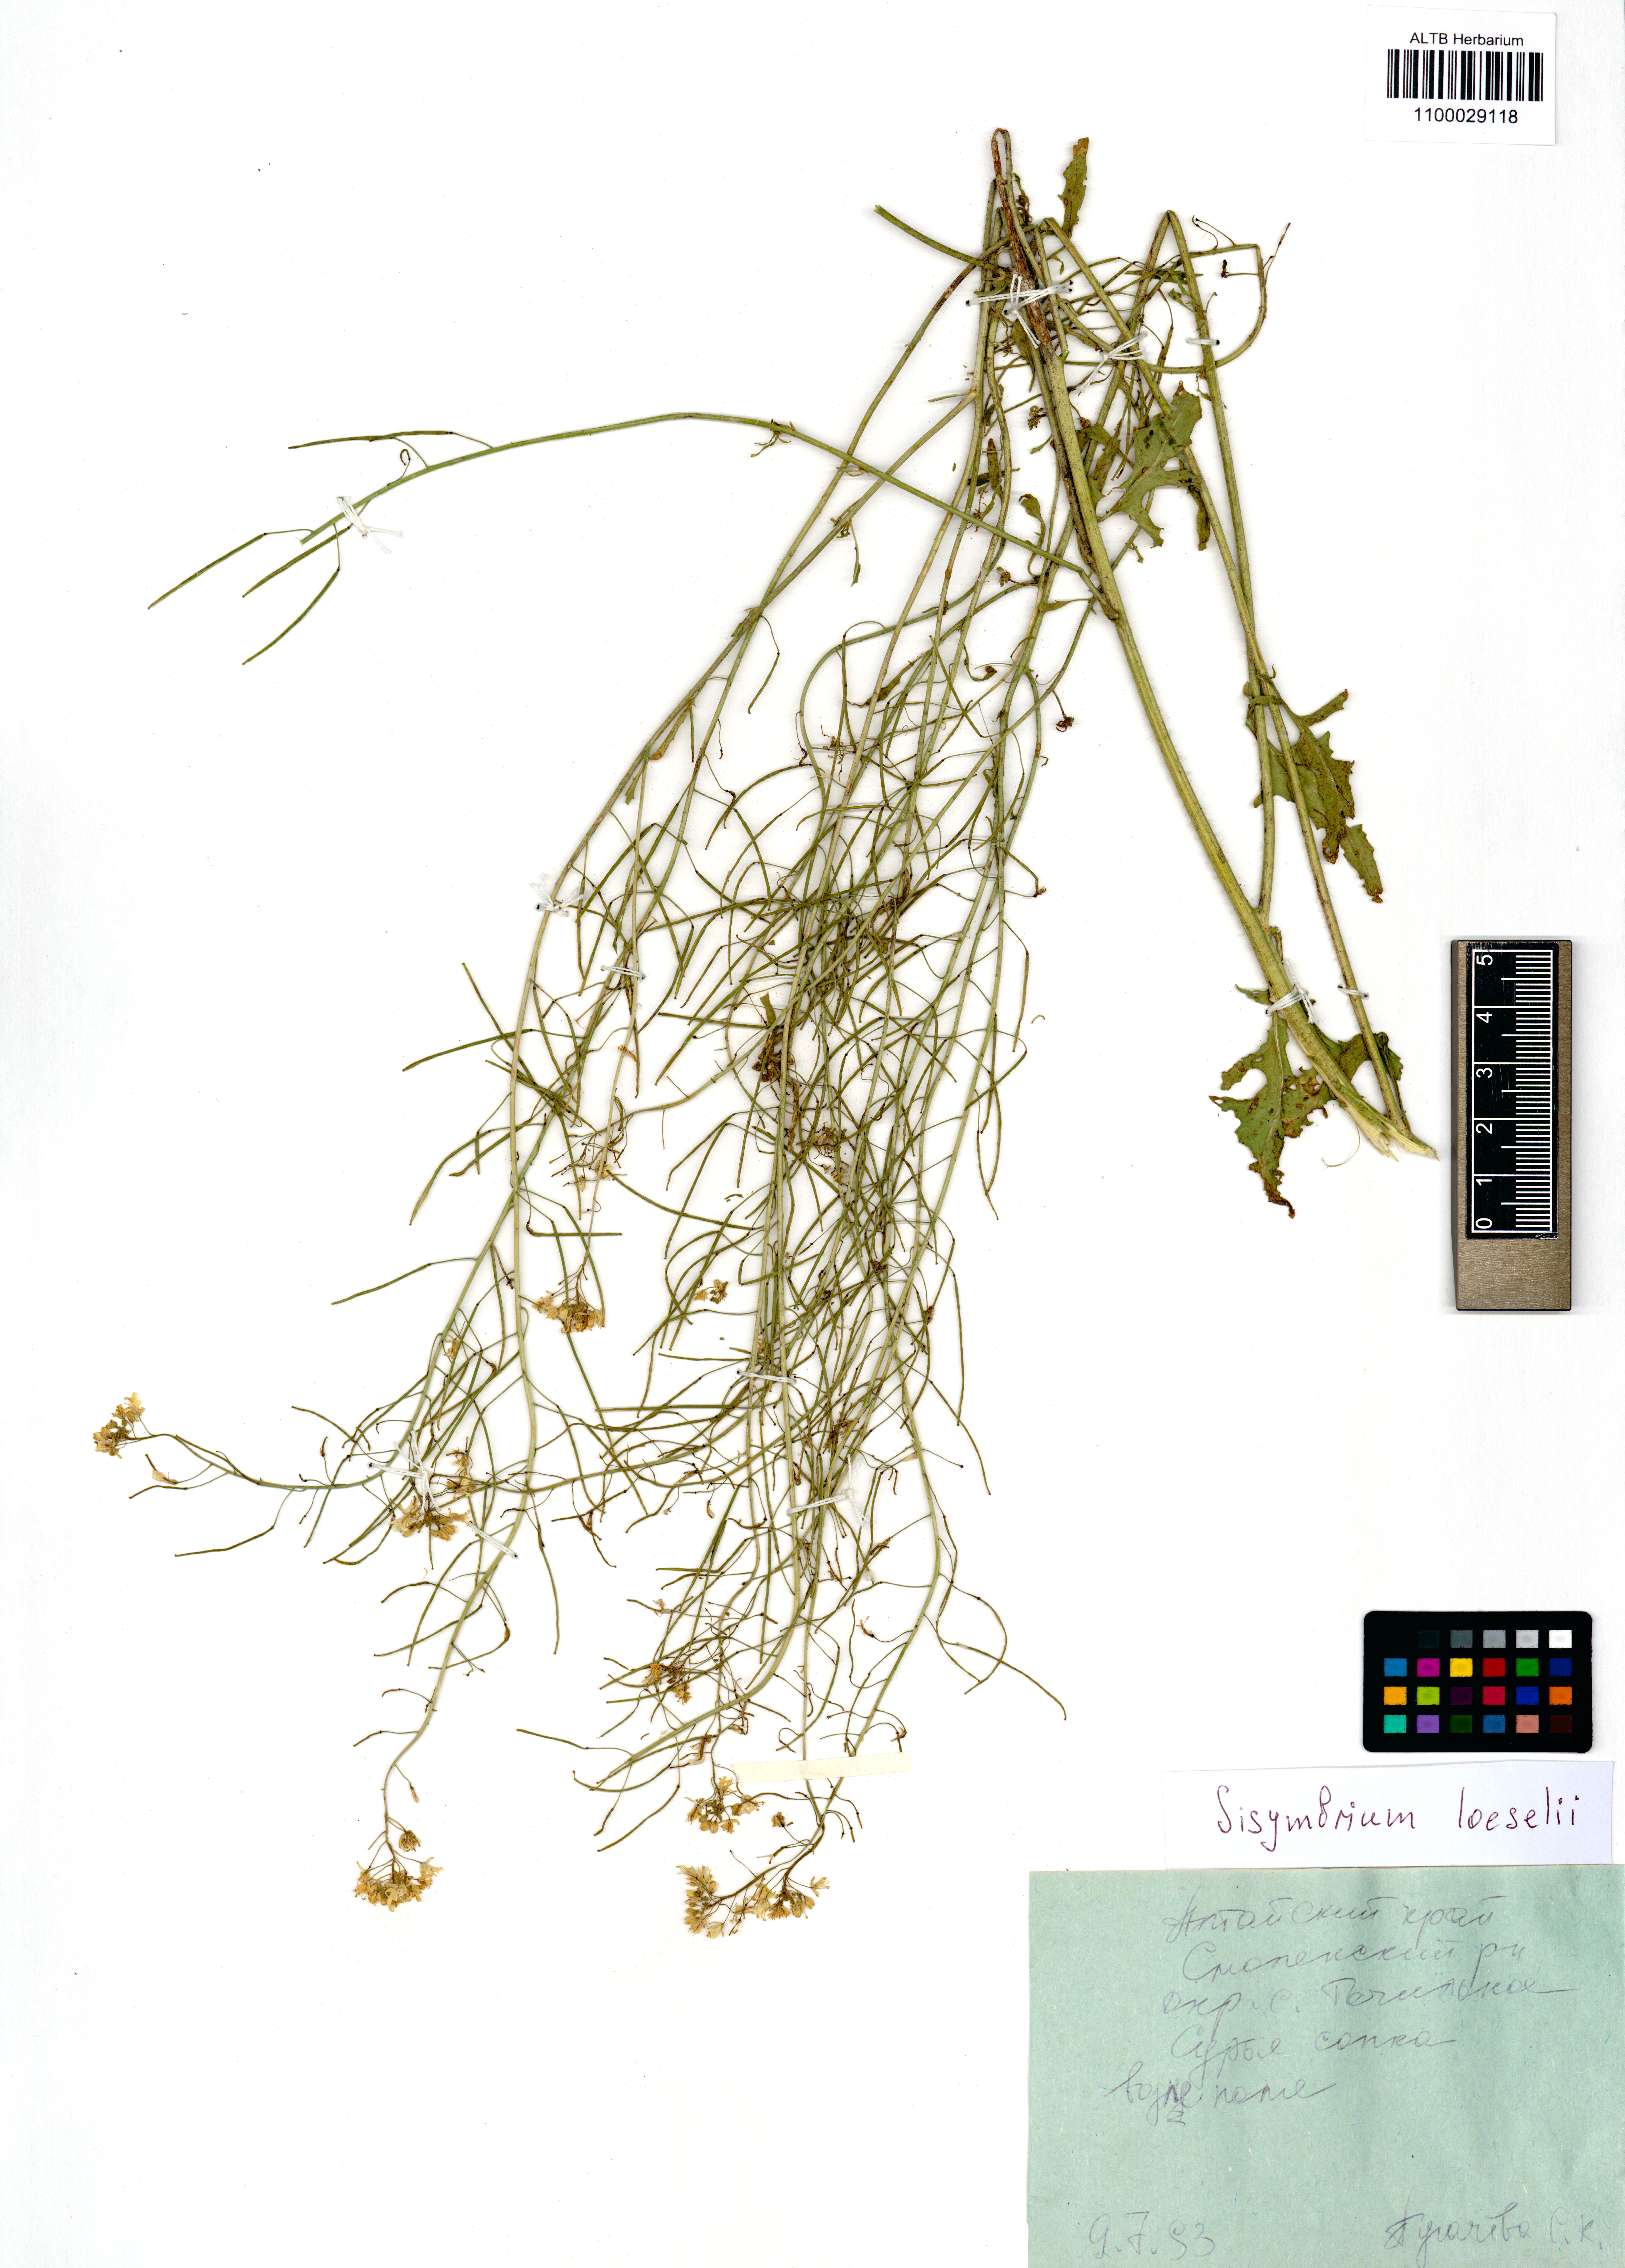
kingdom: Plantae
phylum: Tracheophyta
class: Magnoliopsida
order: Brassicales
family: Brassicaceae
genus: Sisymbrium
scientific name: Sisymbrium loeselii
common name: False london-rocket
